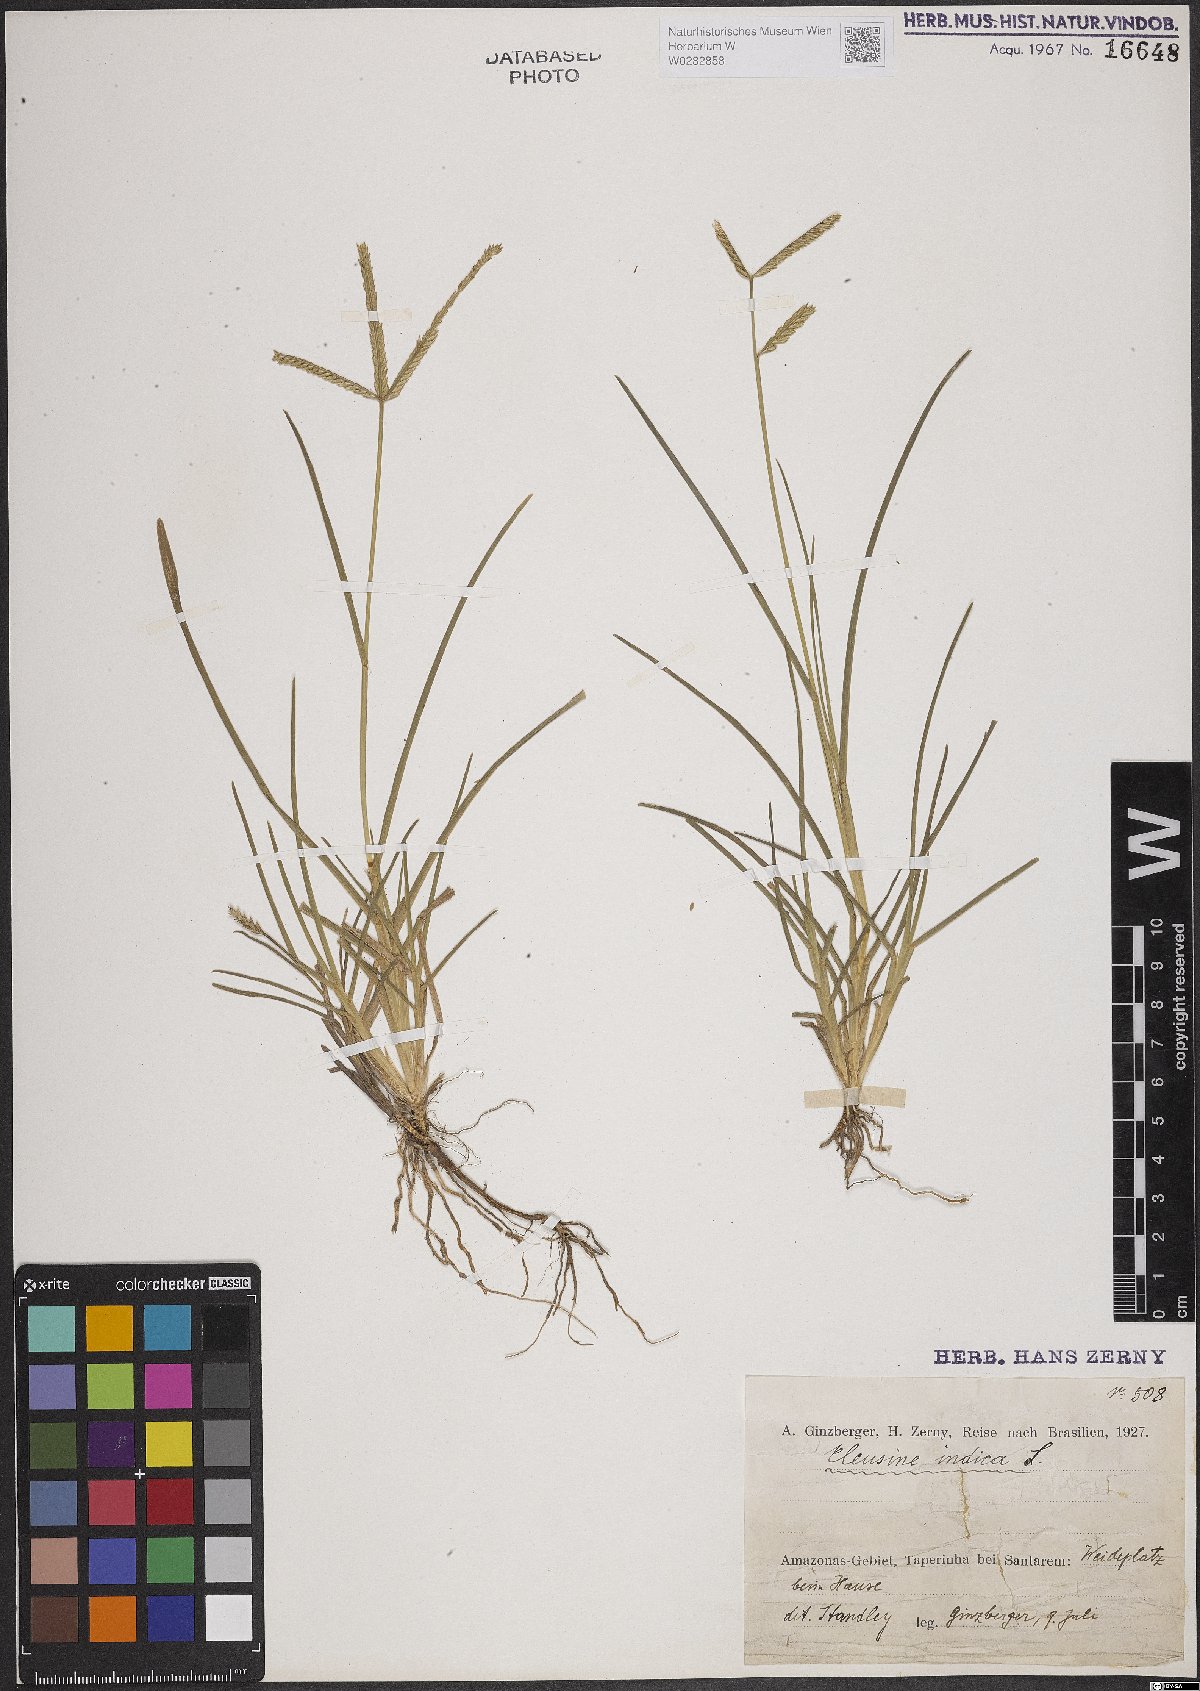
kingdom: Plantae
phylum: Tracheophyta
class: Liliopsida
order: Poales
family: Poaceae
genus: Eleusine
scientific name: Eleusine indica
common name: Yard-grass
